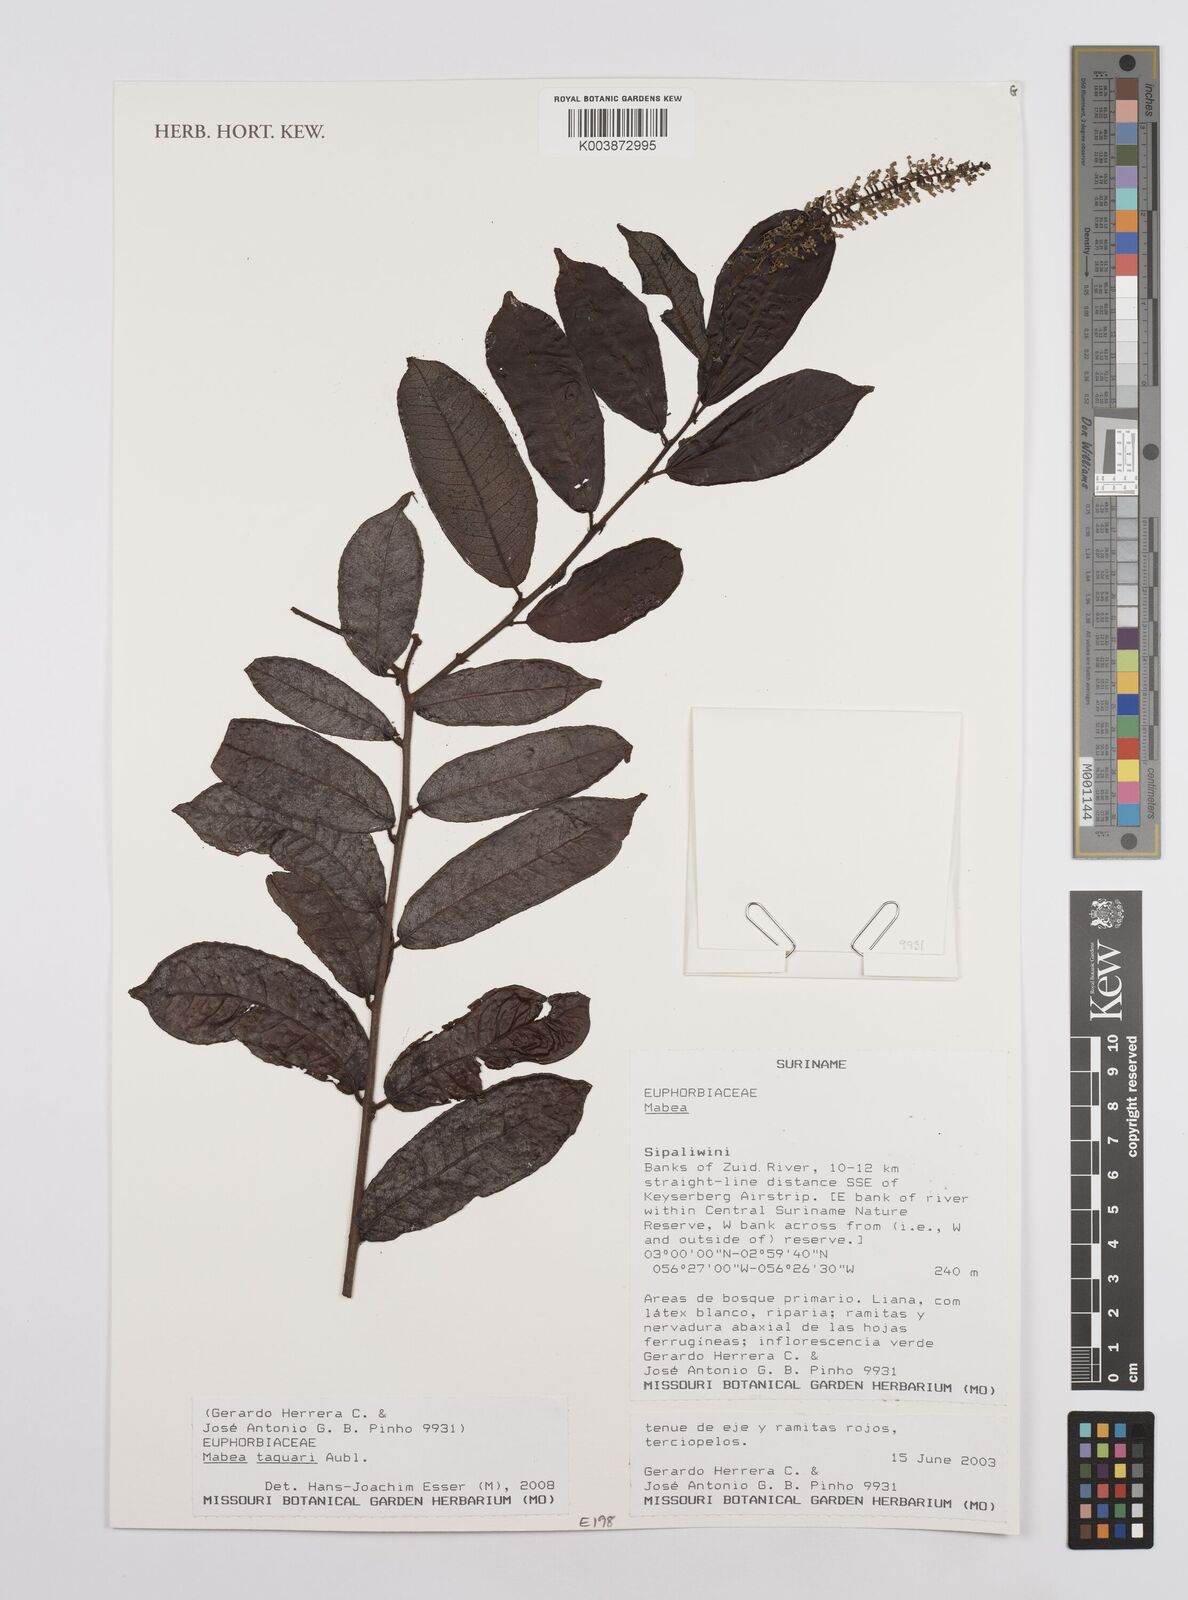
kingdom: Plantae
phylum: Tracheophyta
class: Magnoliopsida
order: Malpighiales
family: Euphorbiaceae
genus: Mabea
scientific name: Mabea taquari
